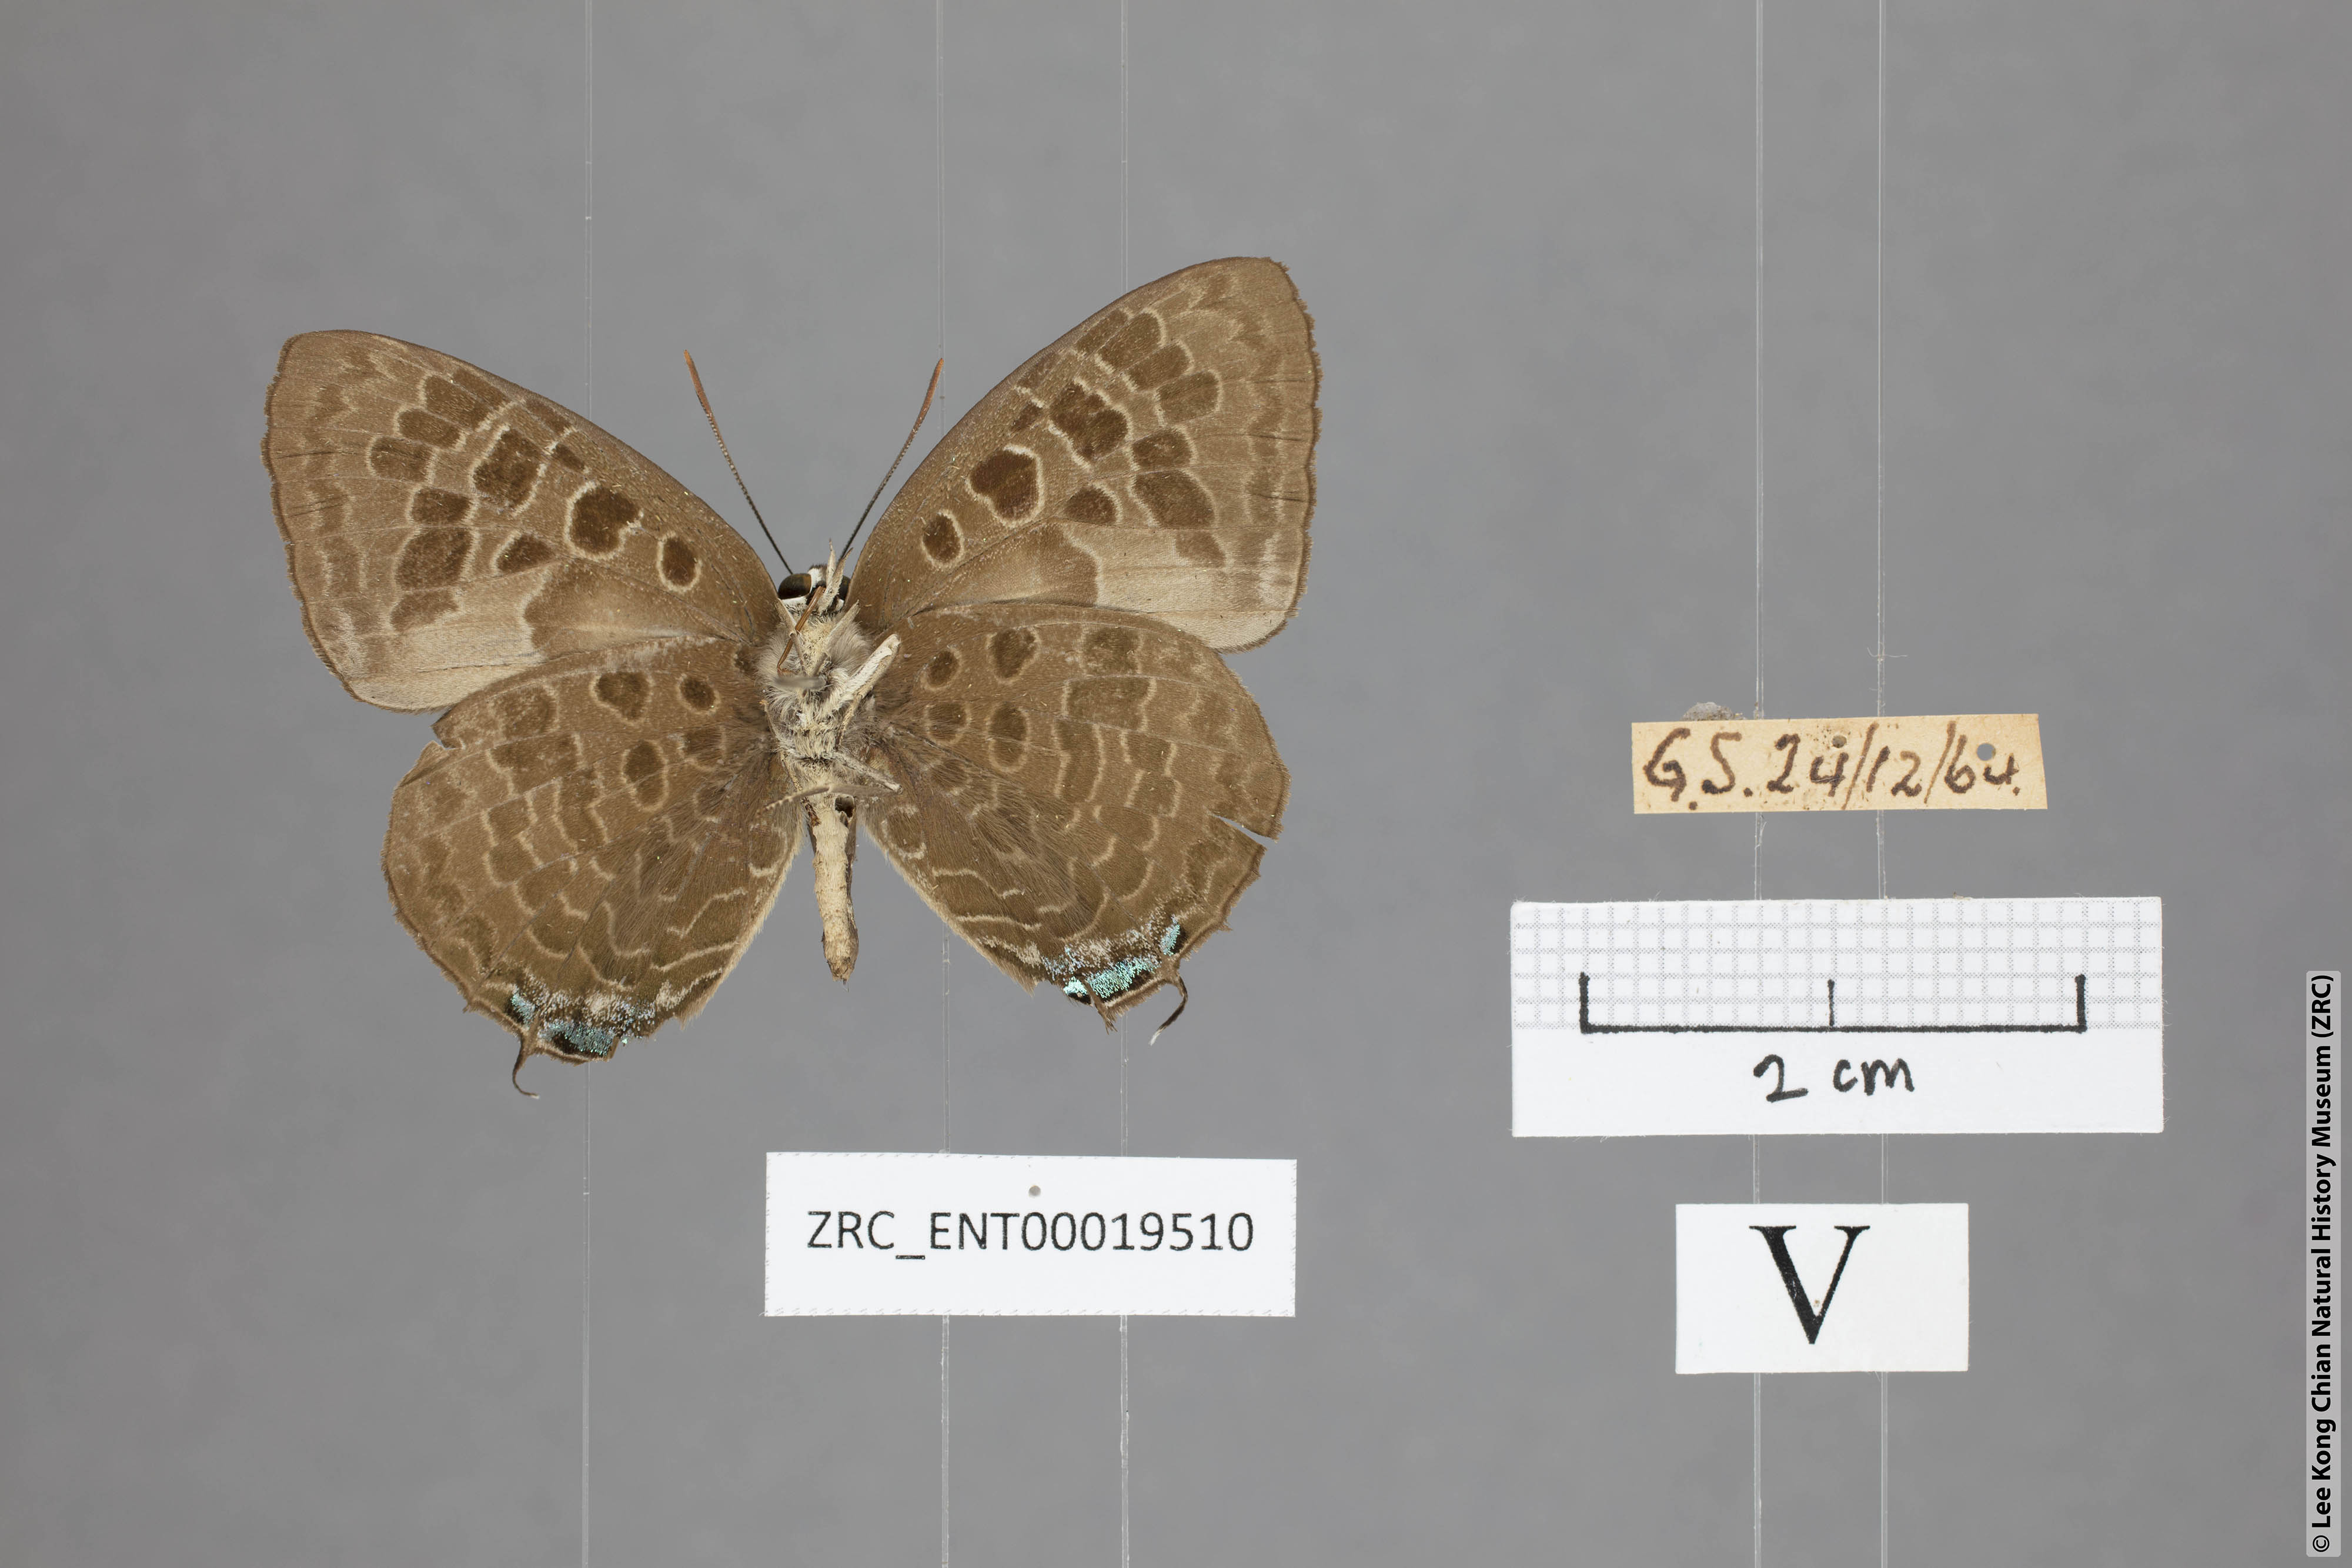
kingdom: Animalia
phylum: Arthropoda
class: Insecta
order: Lepidoptera
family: Lycaenidae
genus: Arhopala
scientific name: Arhopala hellenore
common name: Doherty's green oakblue
